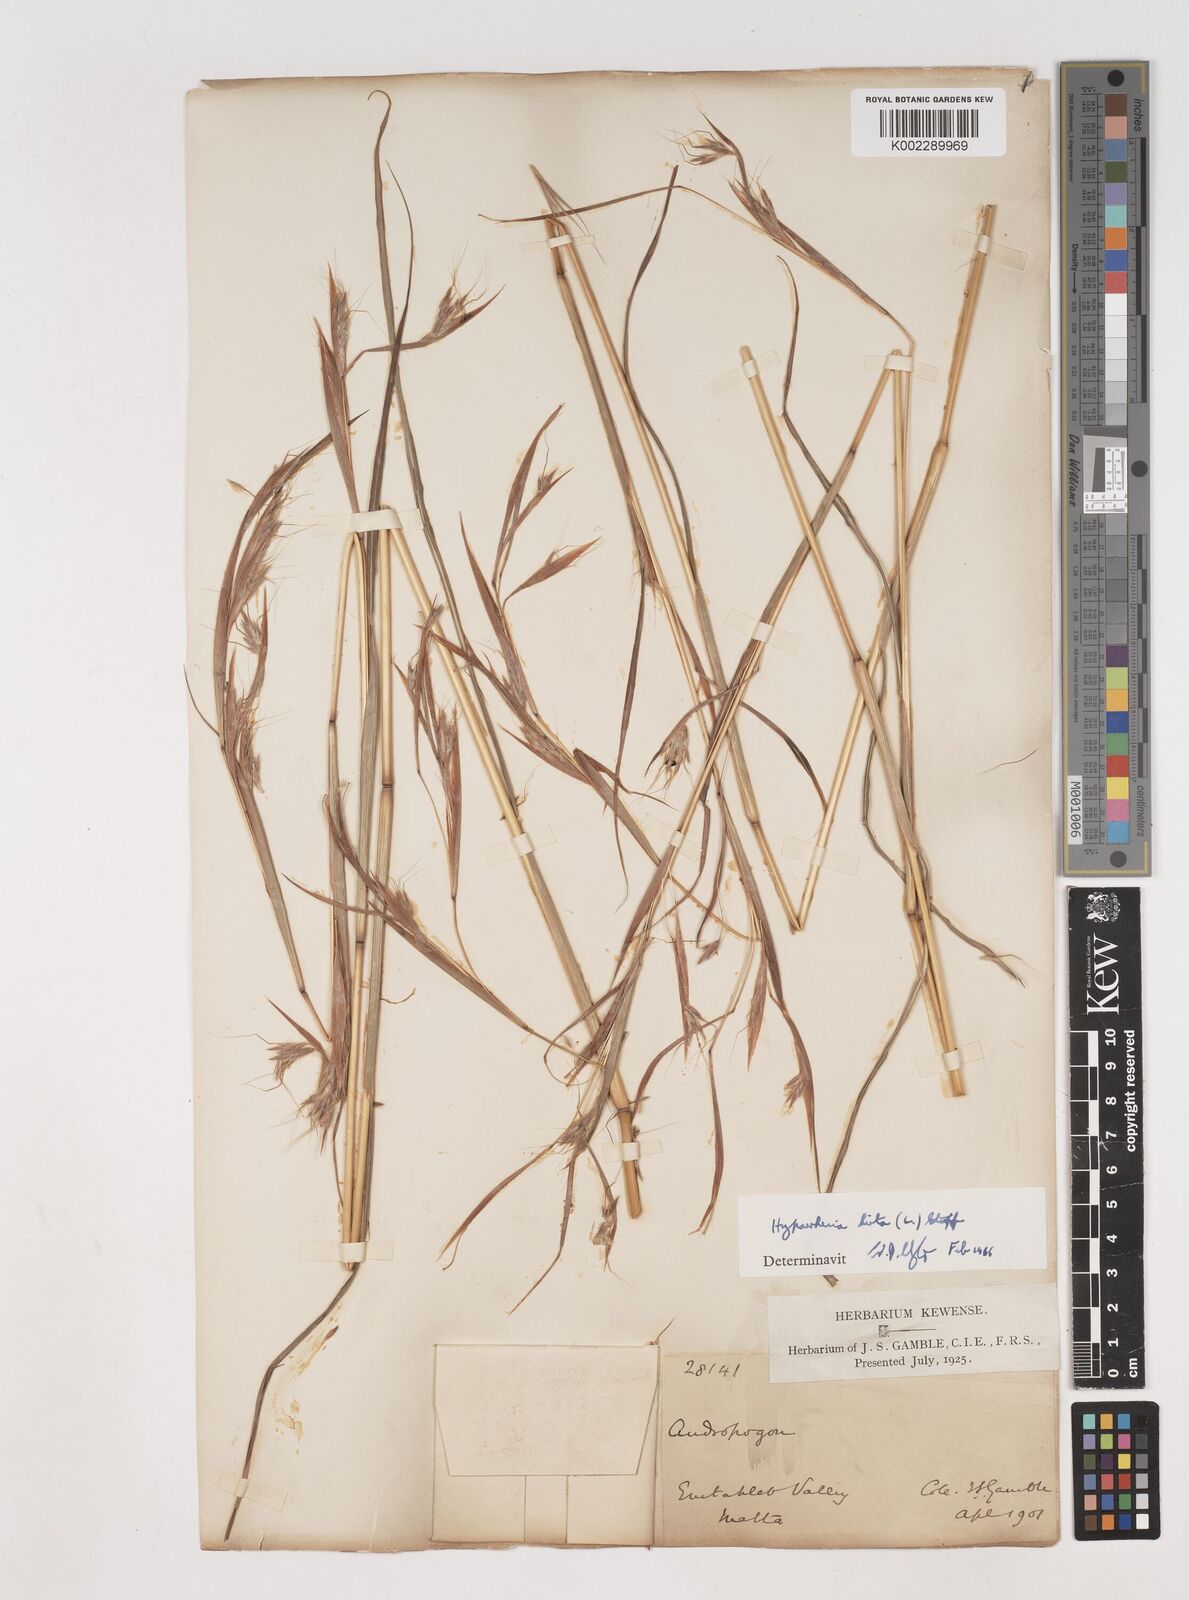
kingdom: Plantae
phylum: Tracheophyta
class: Liliopsida
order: Poales
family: Poaceae
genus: Hyparrhenia
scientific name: Hyparrhenia hirta
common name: Thatching grass
